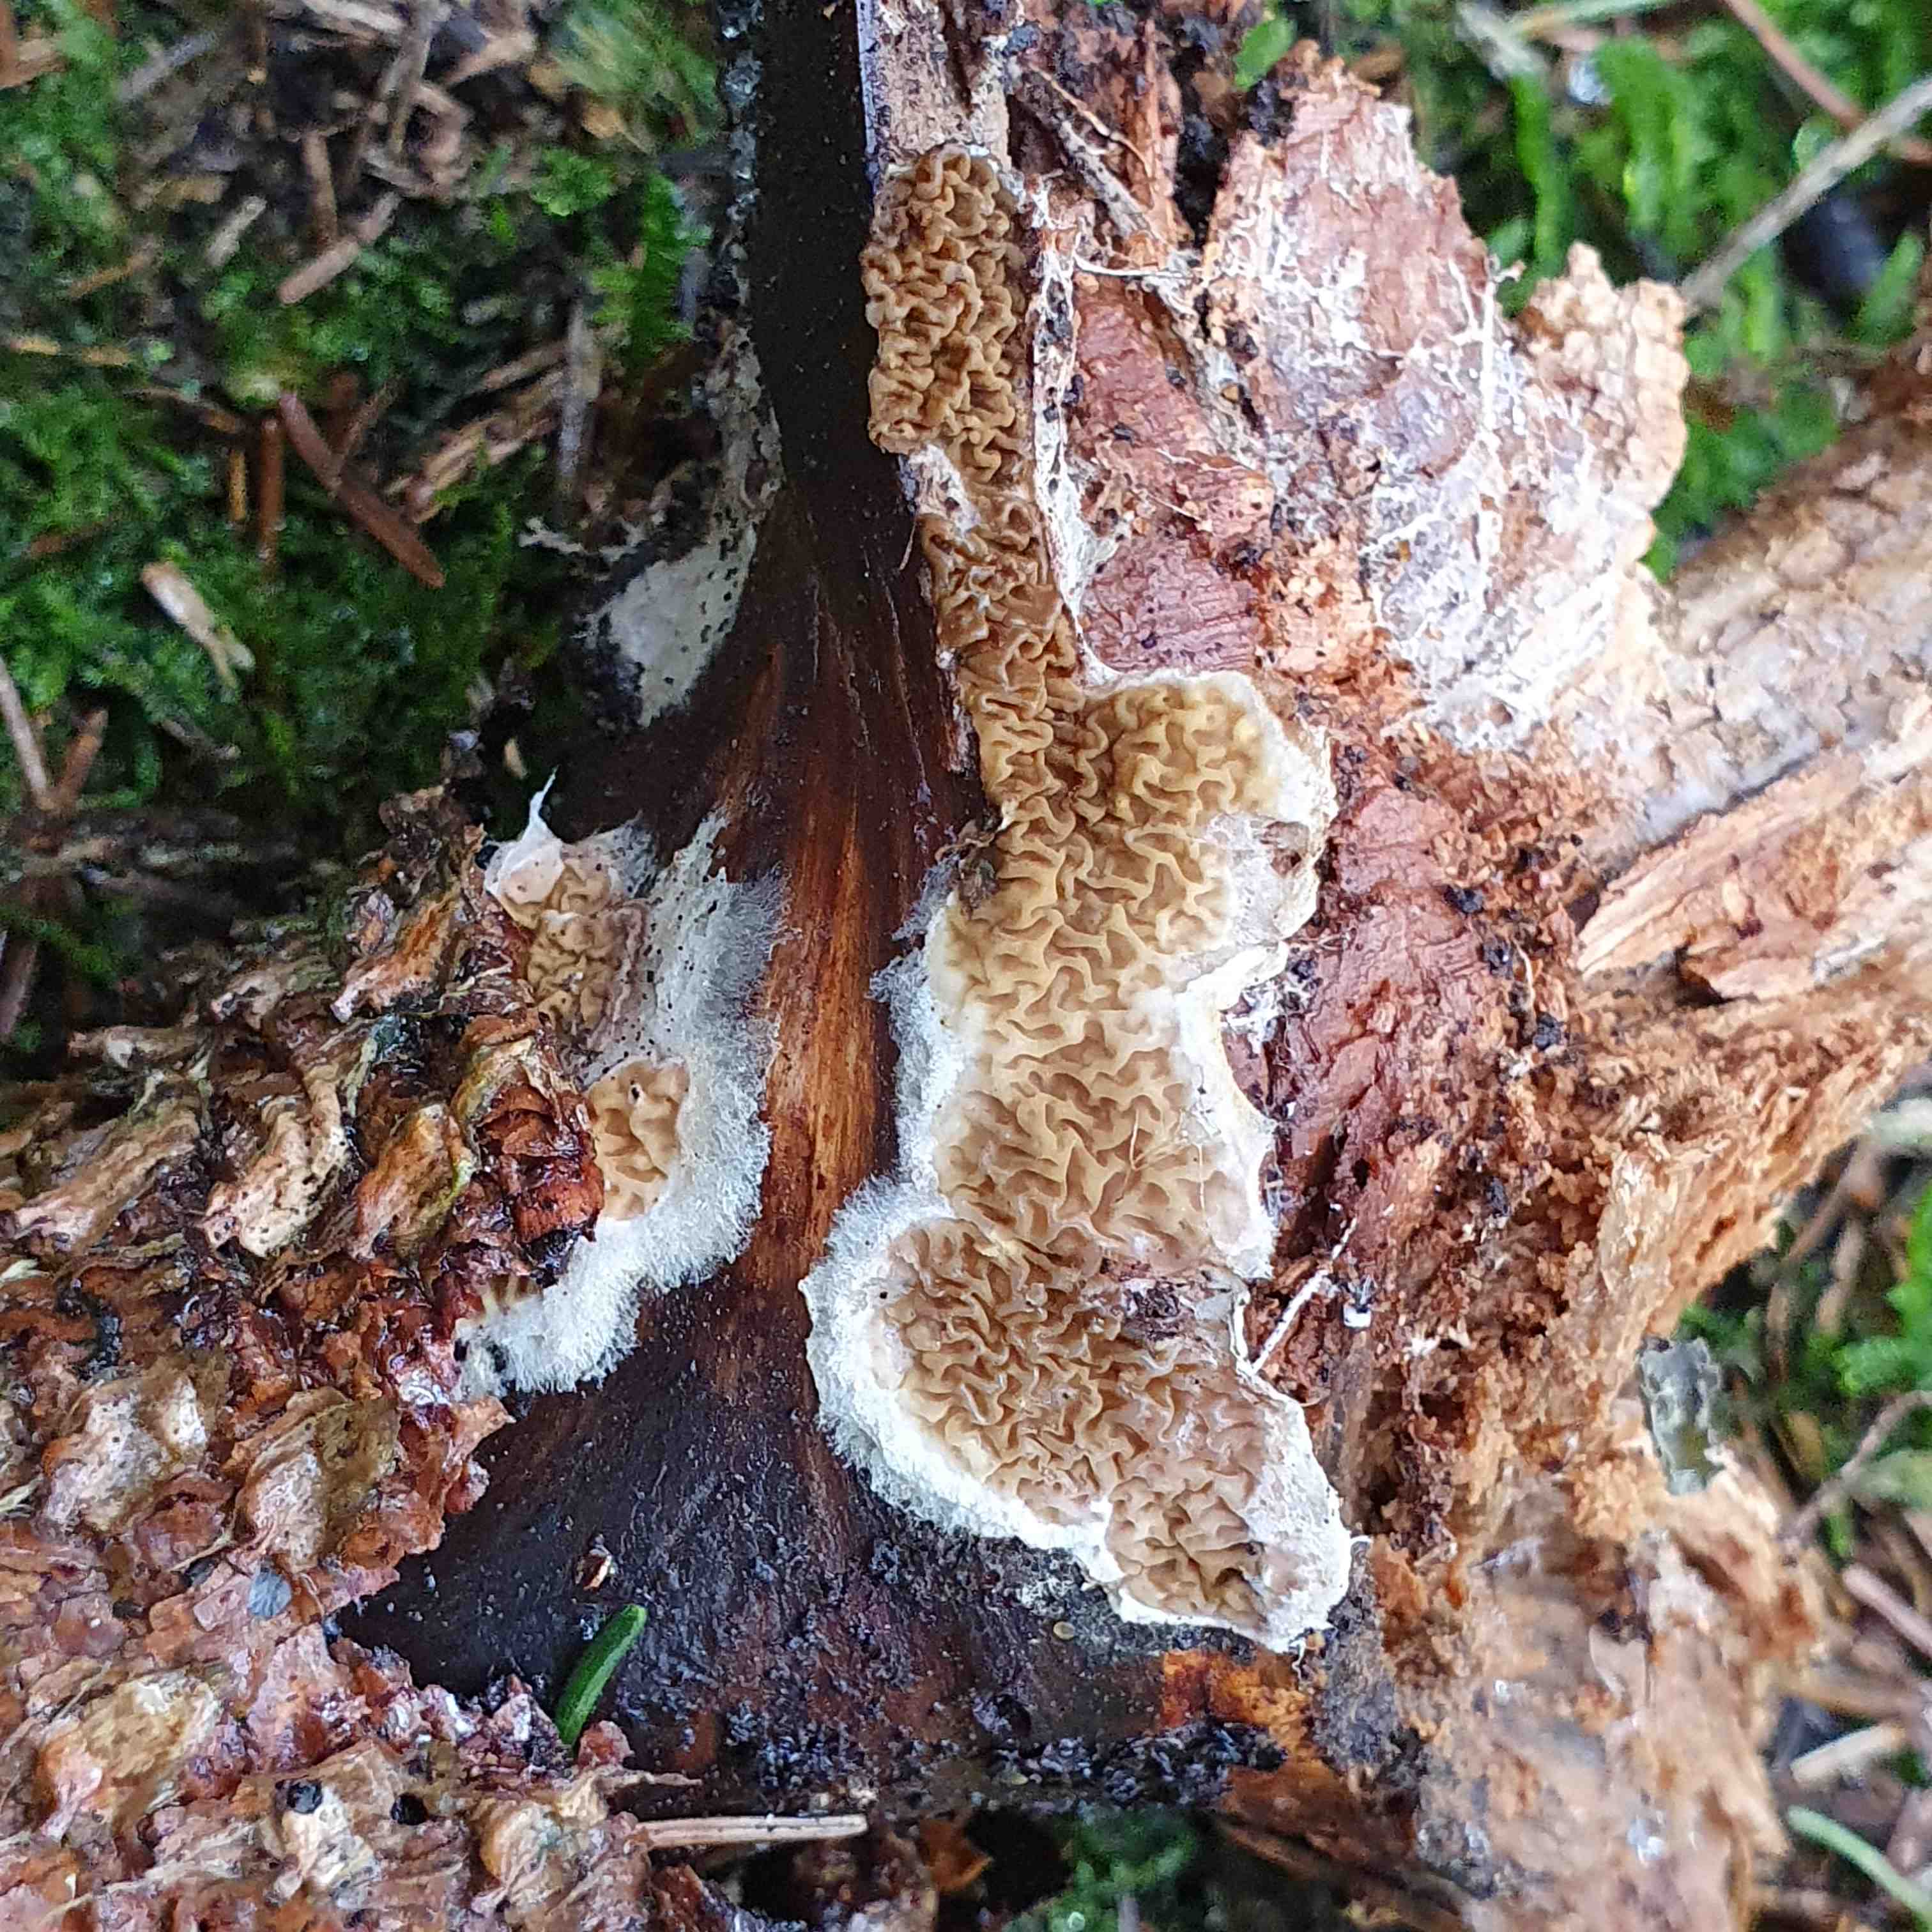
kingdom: Fungi
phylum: Basidiomycota
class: Agaricomycetes
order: Boletales
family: Serpulaceae
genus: Serpula
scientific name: Serpula himantioides
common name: tyndkødet hussvamp
